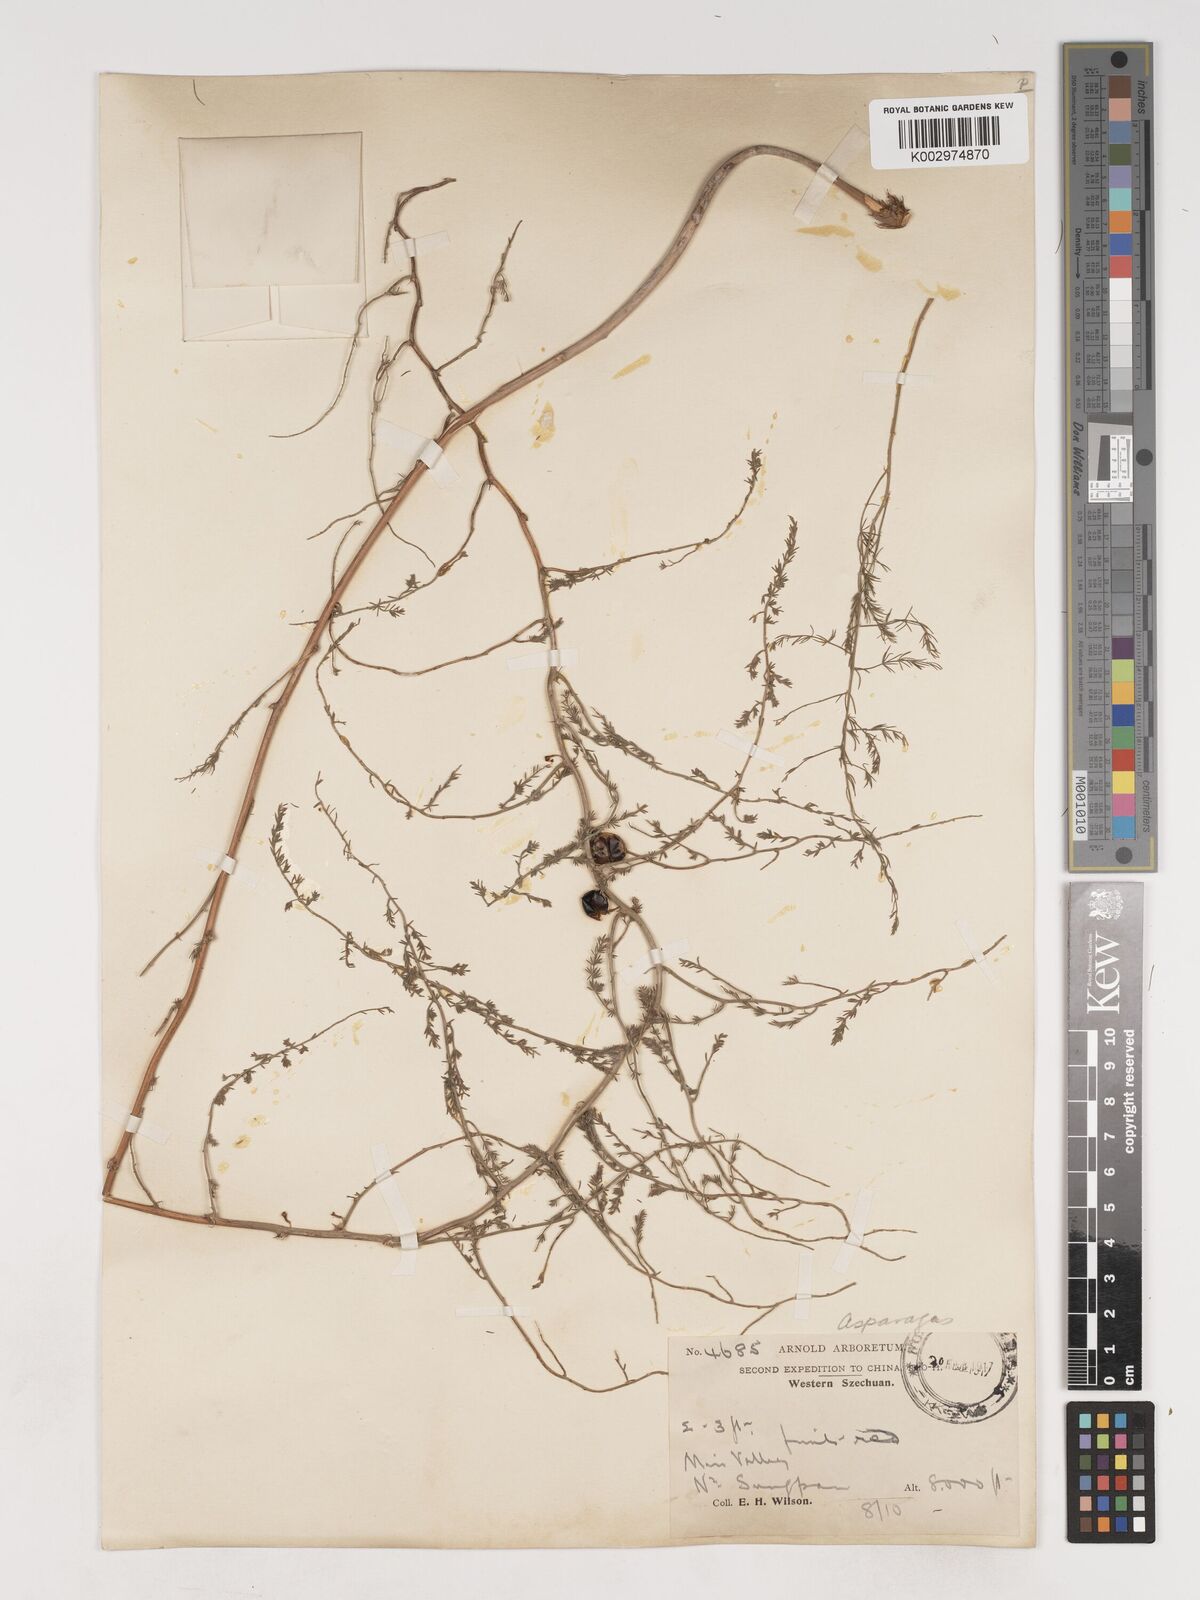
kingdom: Plantae
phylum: Tracheophyta
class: Liliopsida
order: Asparagales
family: Asparagaceae
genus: Asparagus
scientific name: Asparagus trichophyllus
